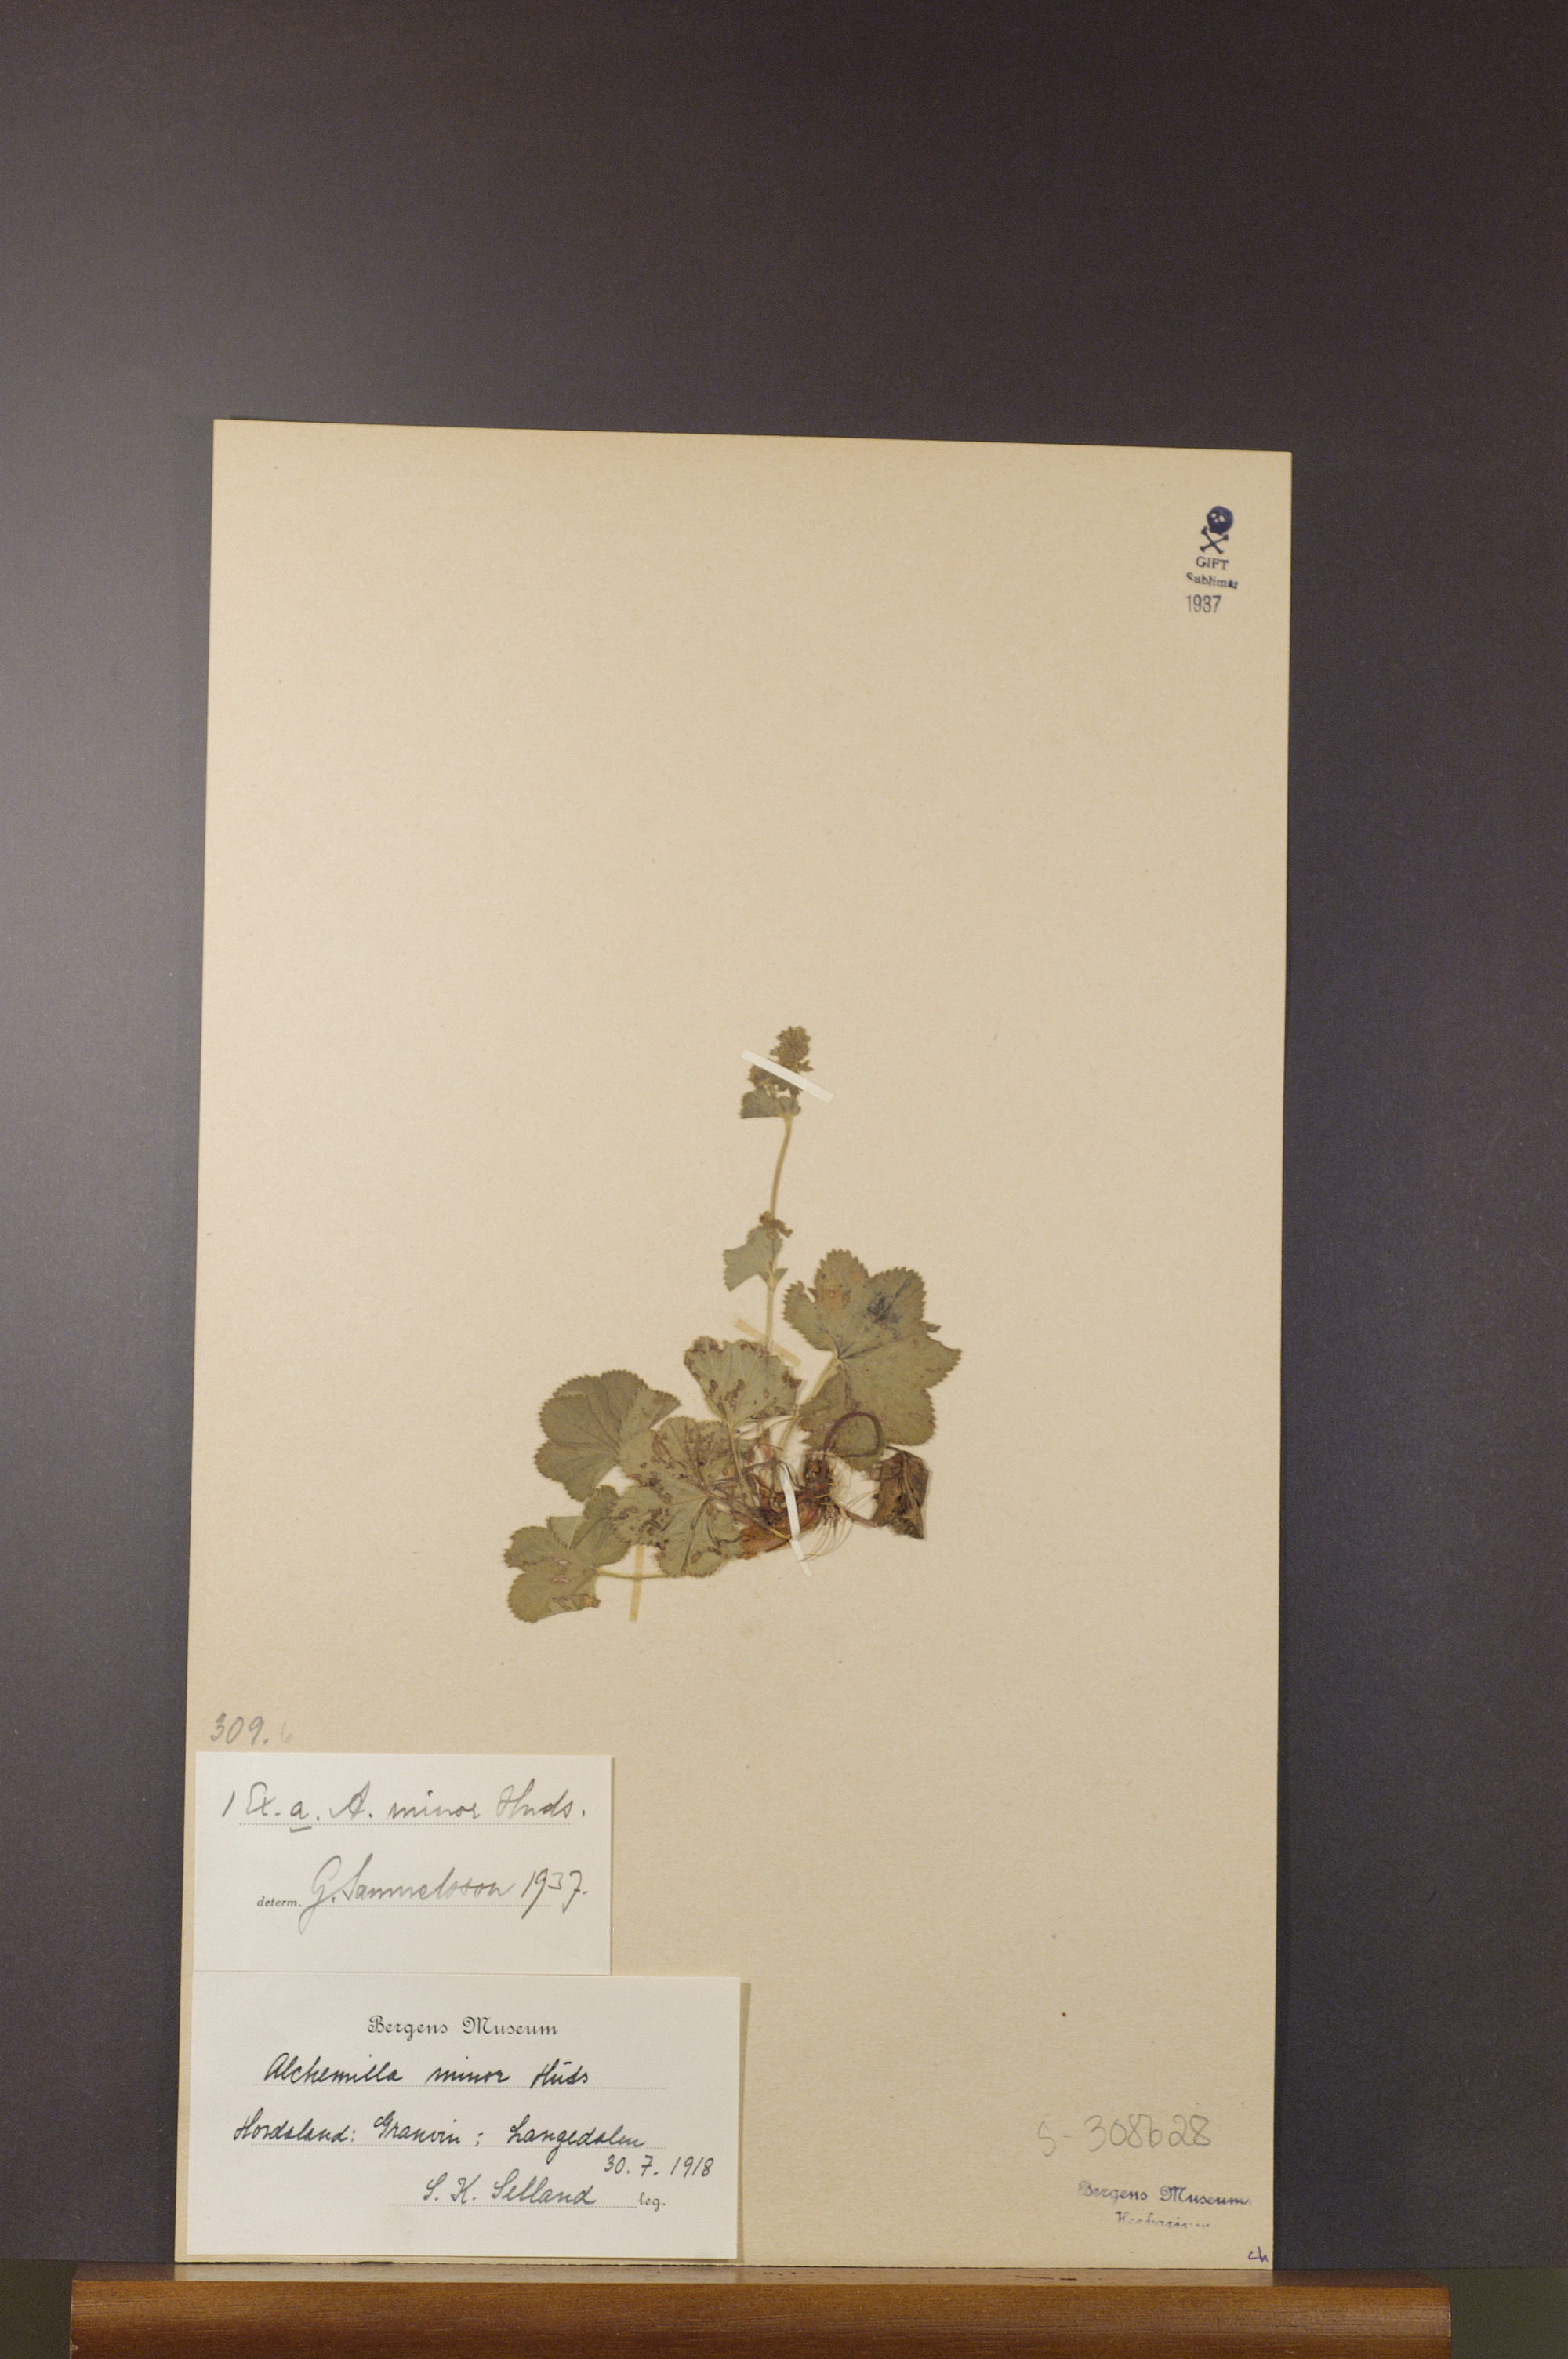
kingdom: Plantae
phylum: Tracheophyta
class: Magnoliopsida
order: Rosales
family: Rosaceae
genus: Alchemilla
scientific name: Alchemilla filicaulis
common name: Hairy lady's-mantle
